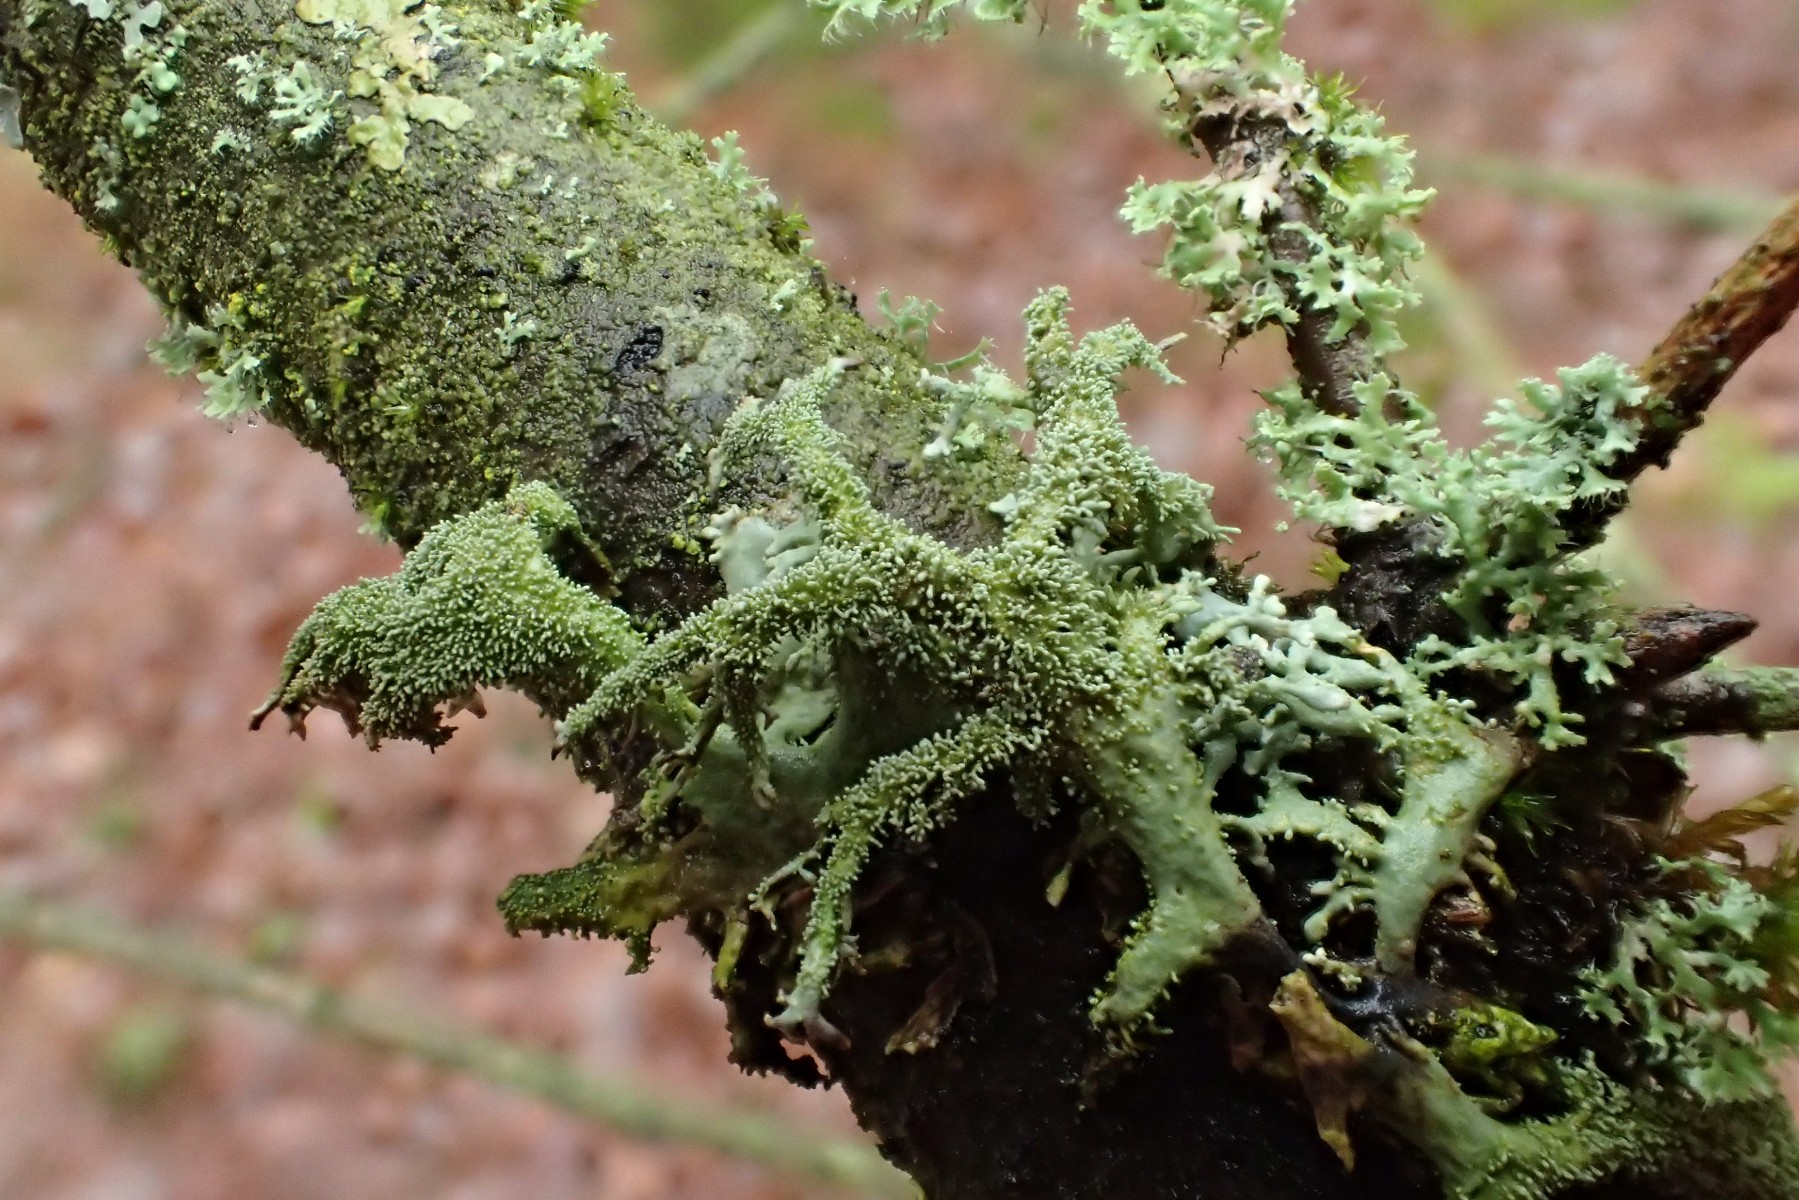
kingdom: Fungi
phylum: Ascomycota
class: Lecanoromycetes
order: Lecanorales
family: Parmeliaceae
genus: Pseudevernia
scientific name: Pseudevernia furfuracea
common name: grå fyrrelav
